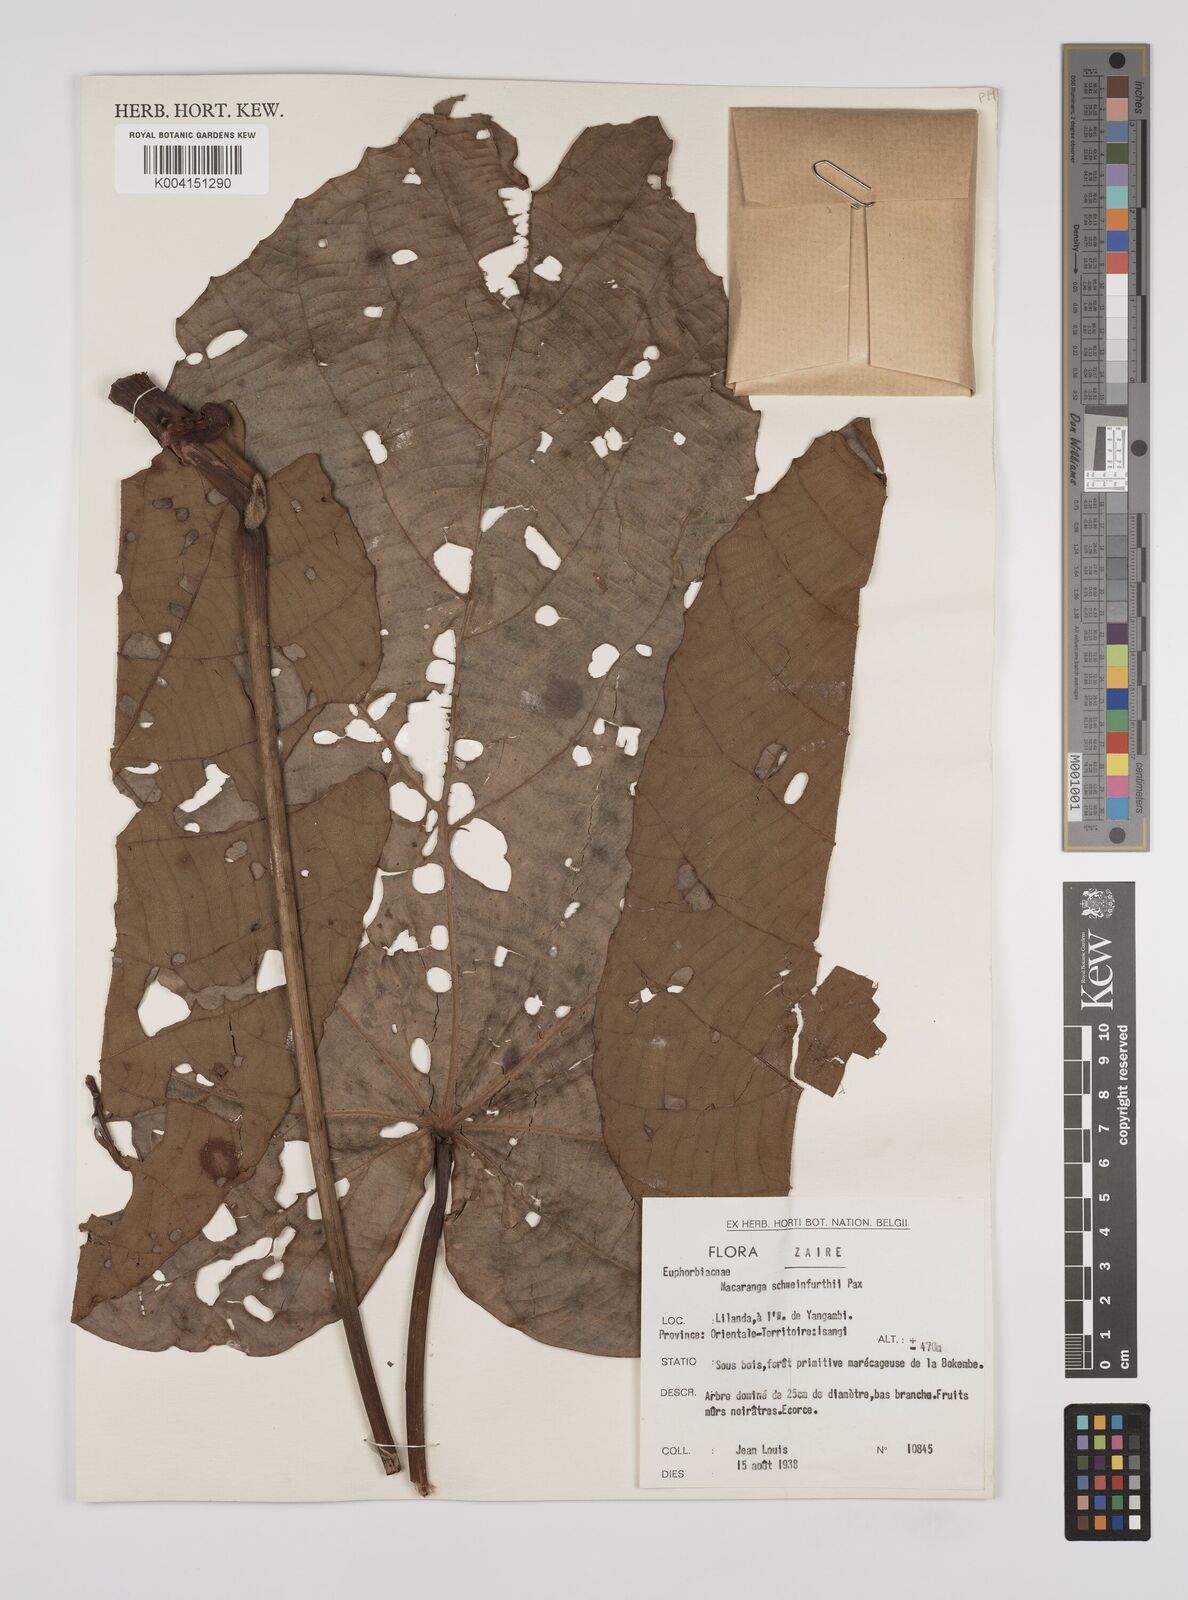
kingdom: Plantae
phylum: Tracheophyta
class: Magnoliopsida
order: Malpighiales
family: Euphorbiaceae
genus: Macaranga
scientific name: Macaranga schweinfurthii
